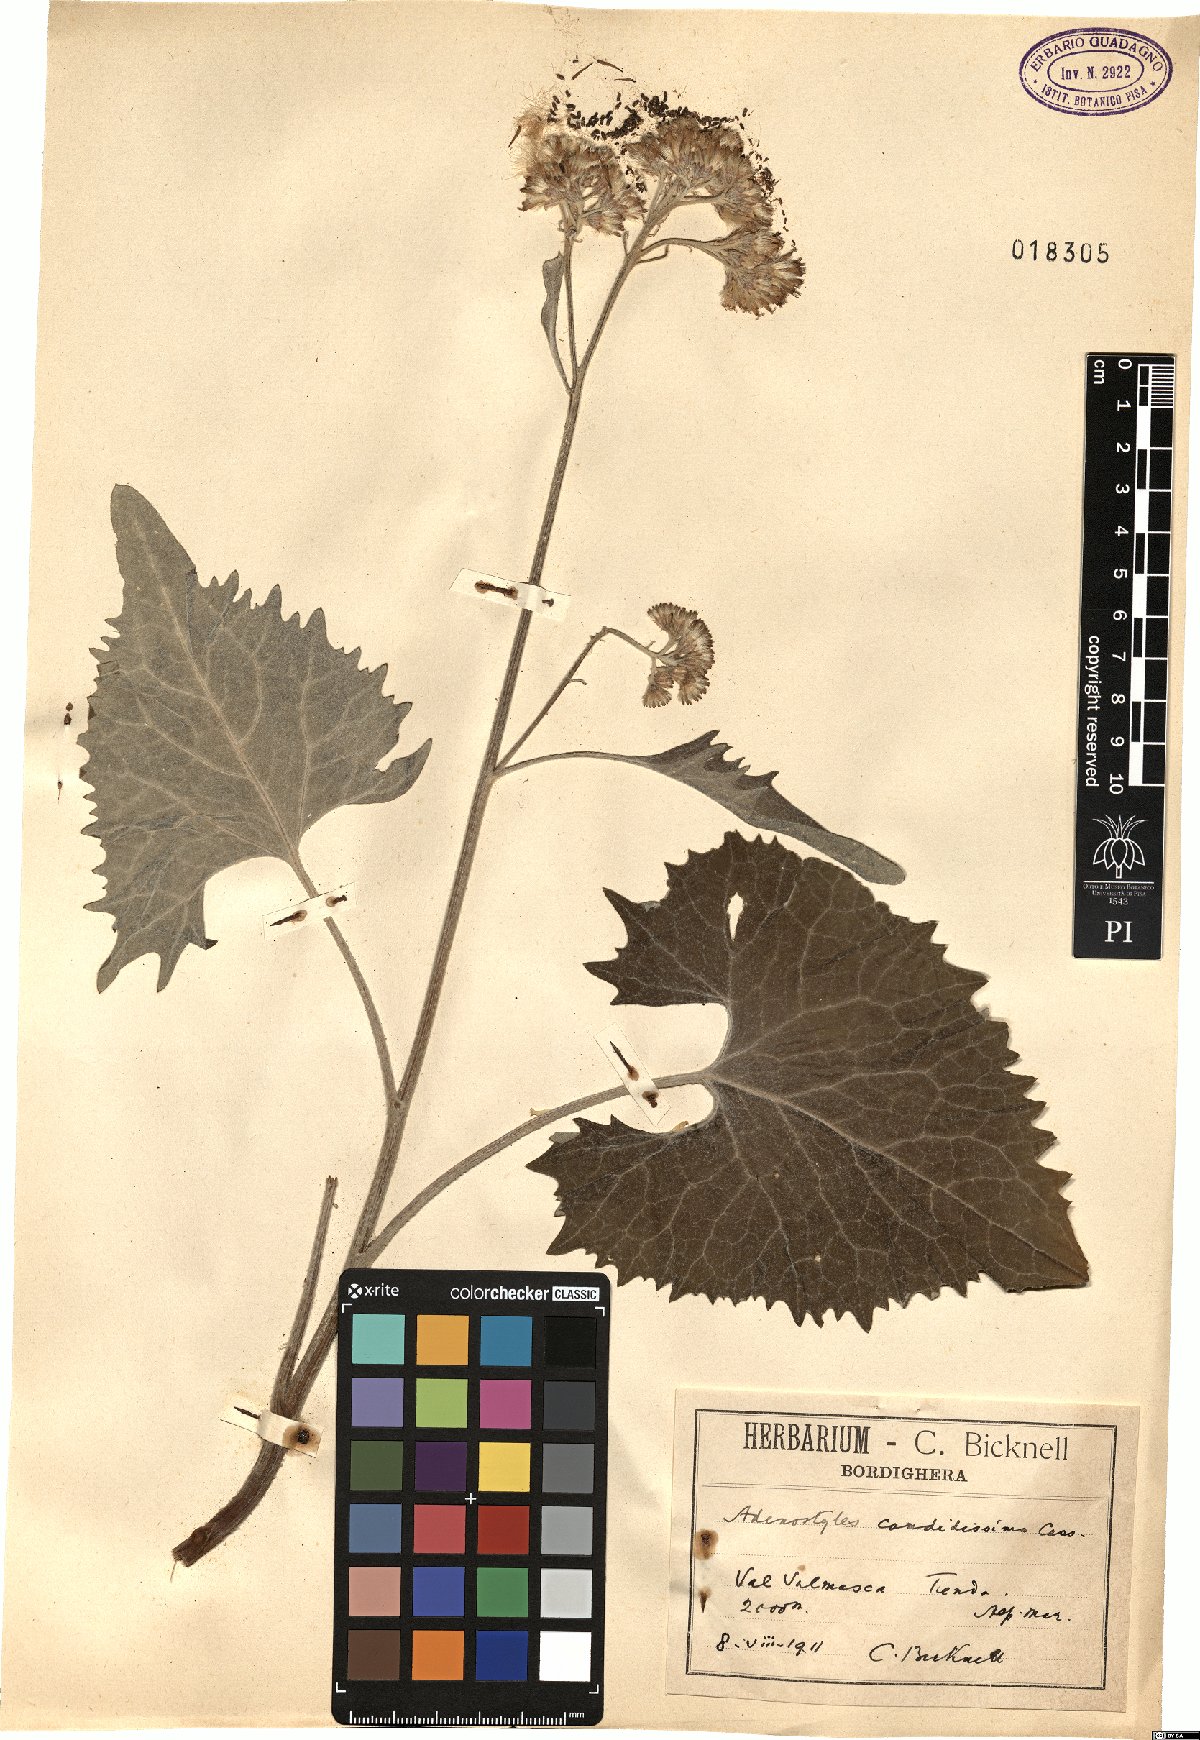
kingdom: Plantae
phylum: Tracheophyta
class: Magnoliopsida
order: Asterales
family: Asteraceae
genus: Adenostyles
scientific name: Adenostyles leucophylla
